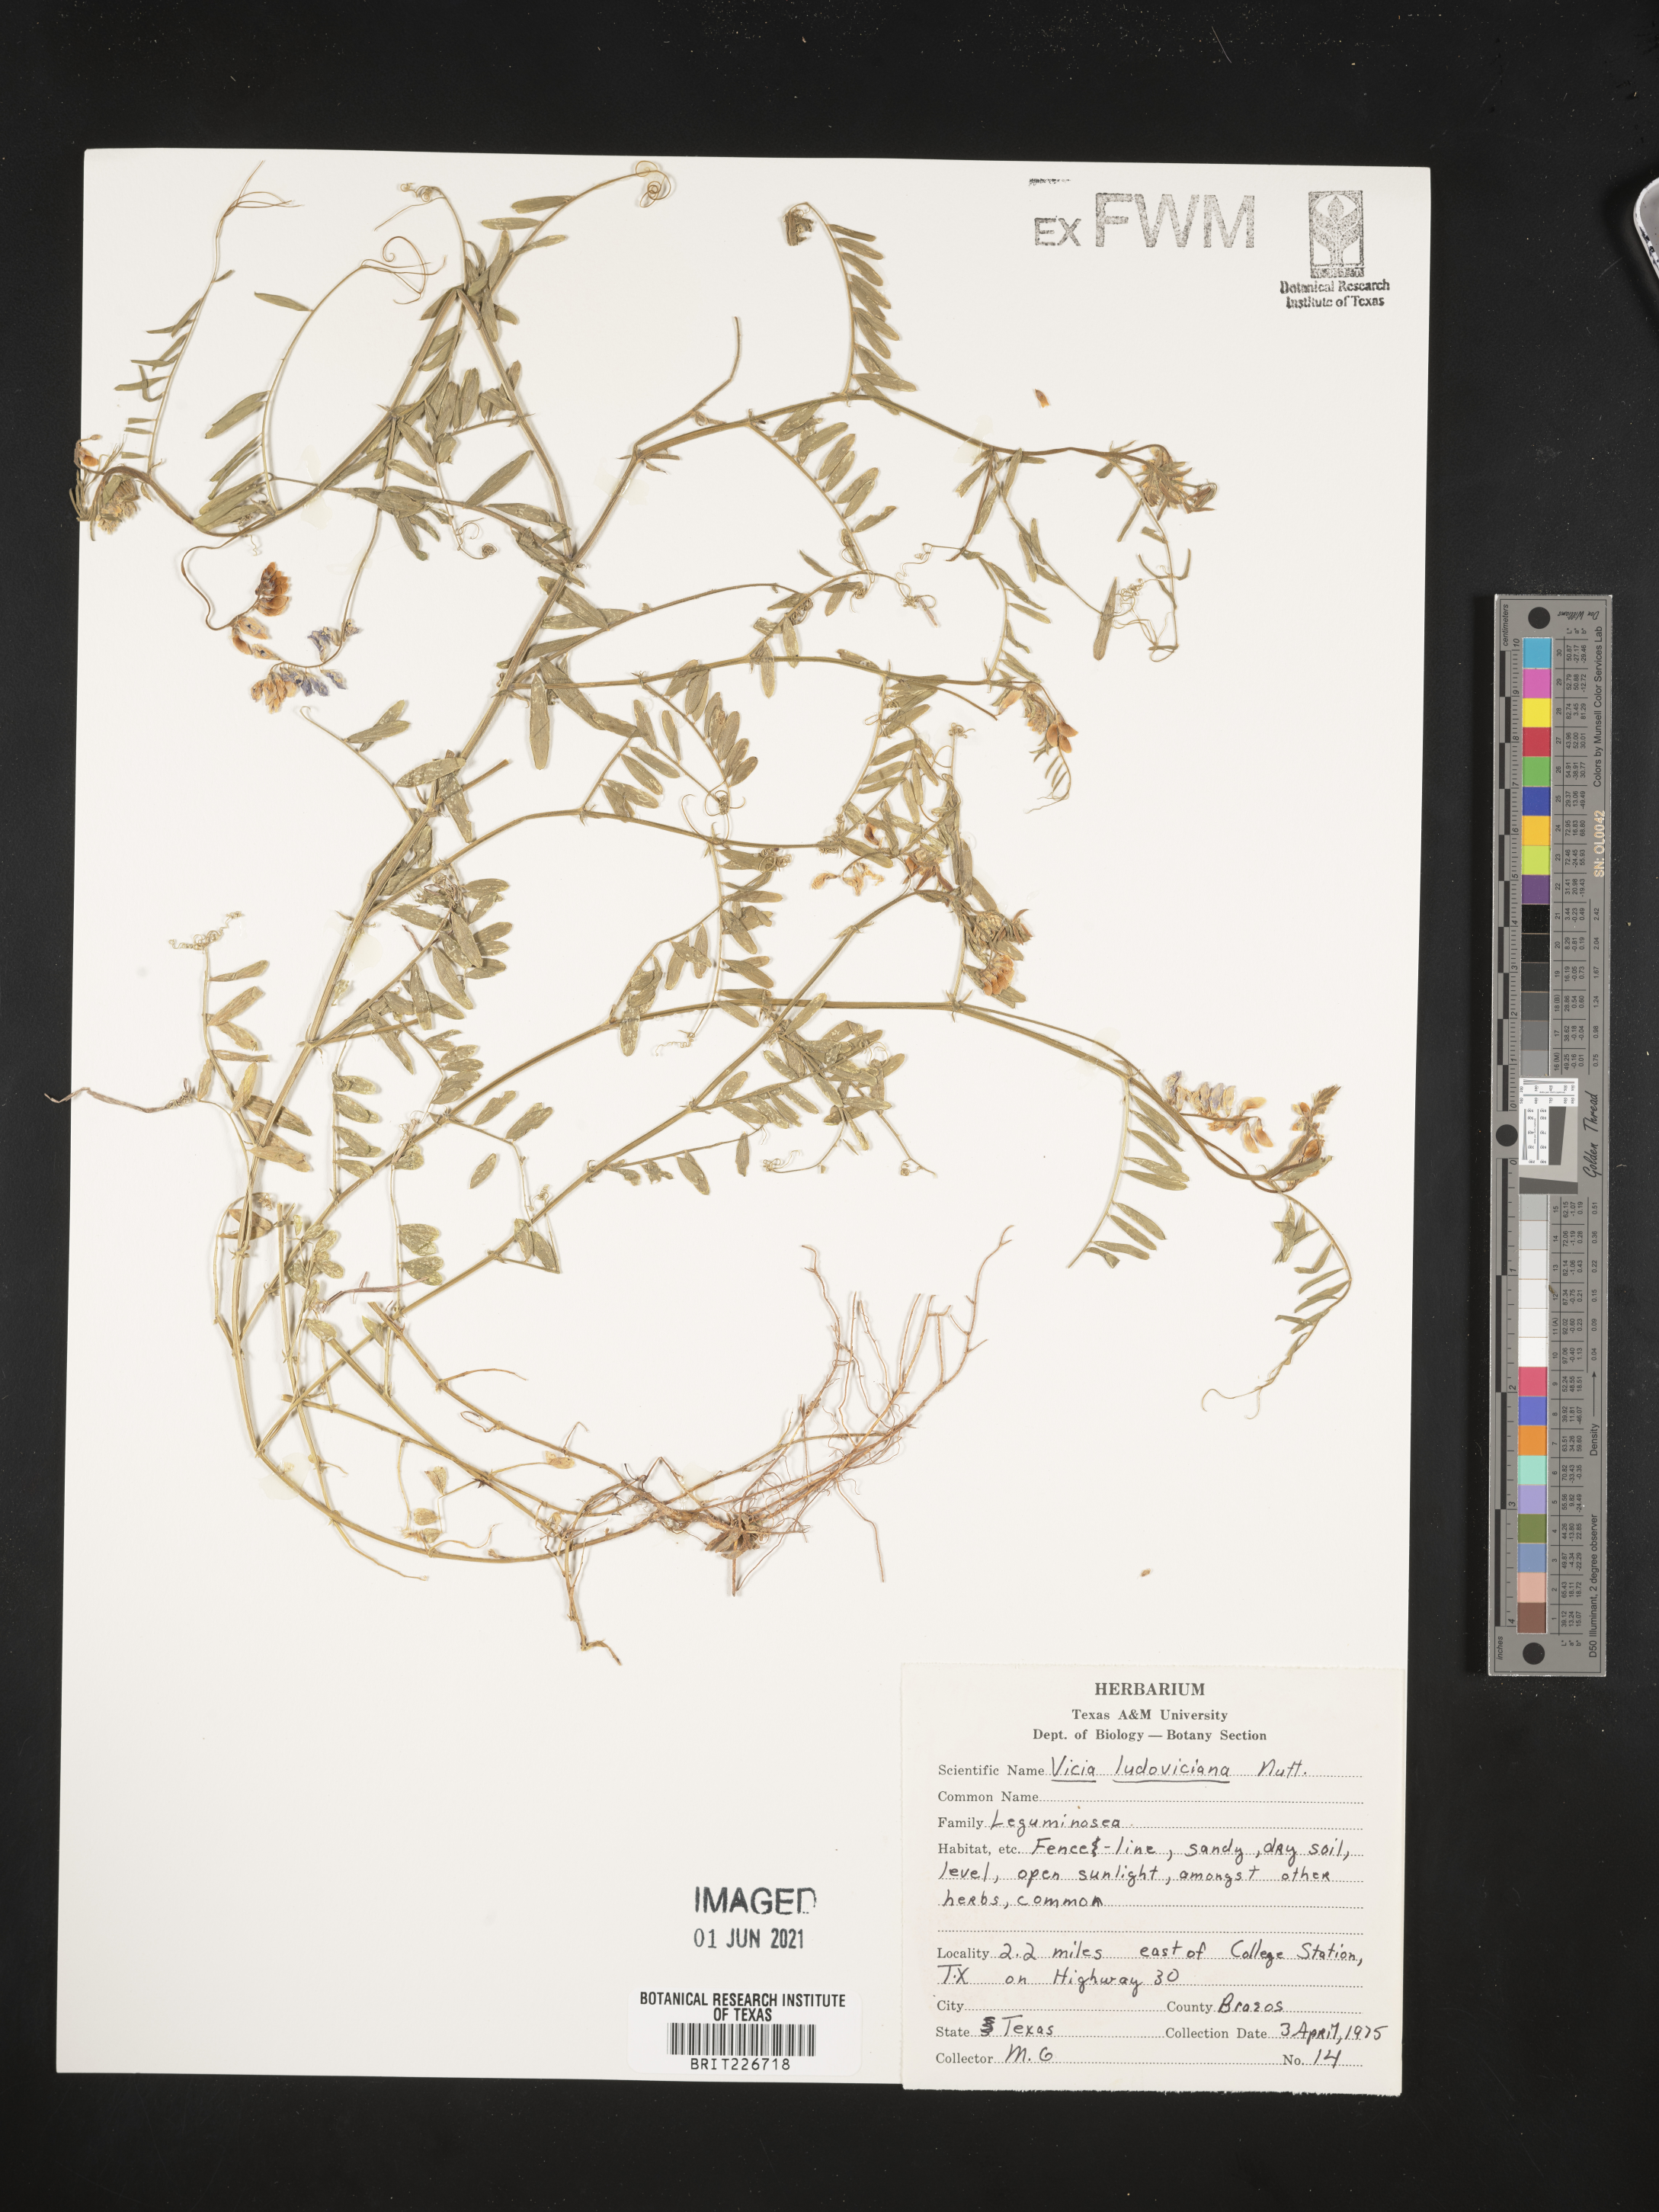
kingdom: Plantae
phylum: Tracheophyta
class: Magnoliopsida
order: Fabales
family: Fabaceae
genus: Vicia
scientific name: Vicia ludoviciana
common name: Louisiana vetch
